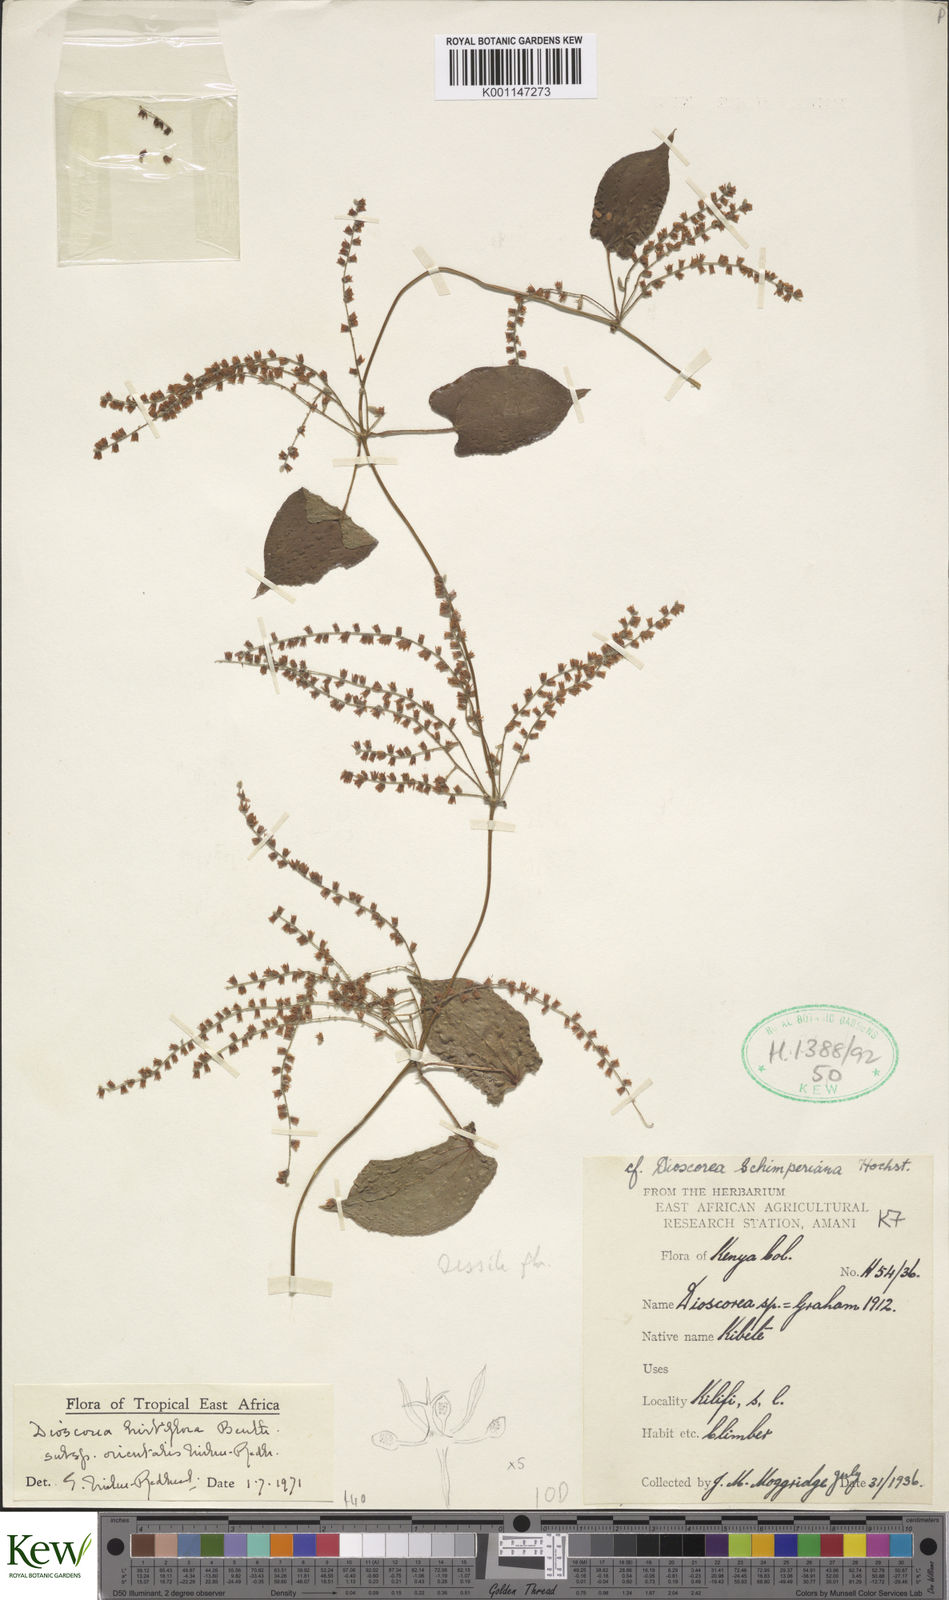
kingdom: Plantae
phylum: Tracheophyta
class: Liliopsida
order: Dioscoreales
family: Dioscoreaceae
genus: Dioscorea
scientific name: Dioscorea hirtiflora
